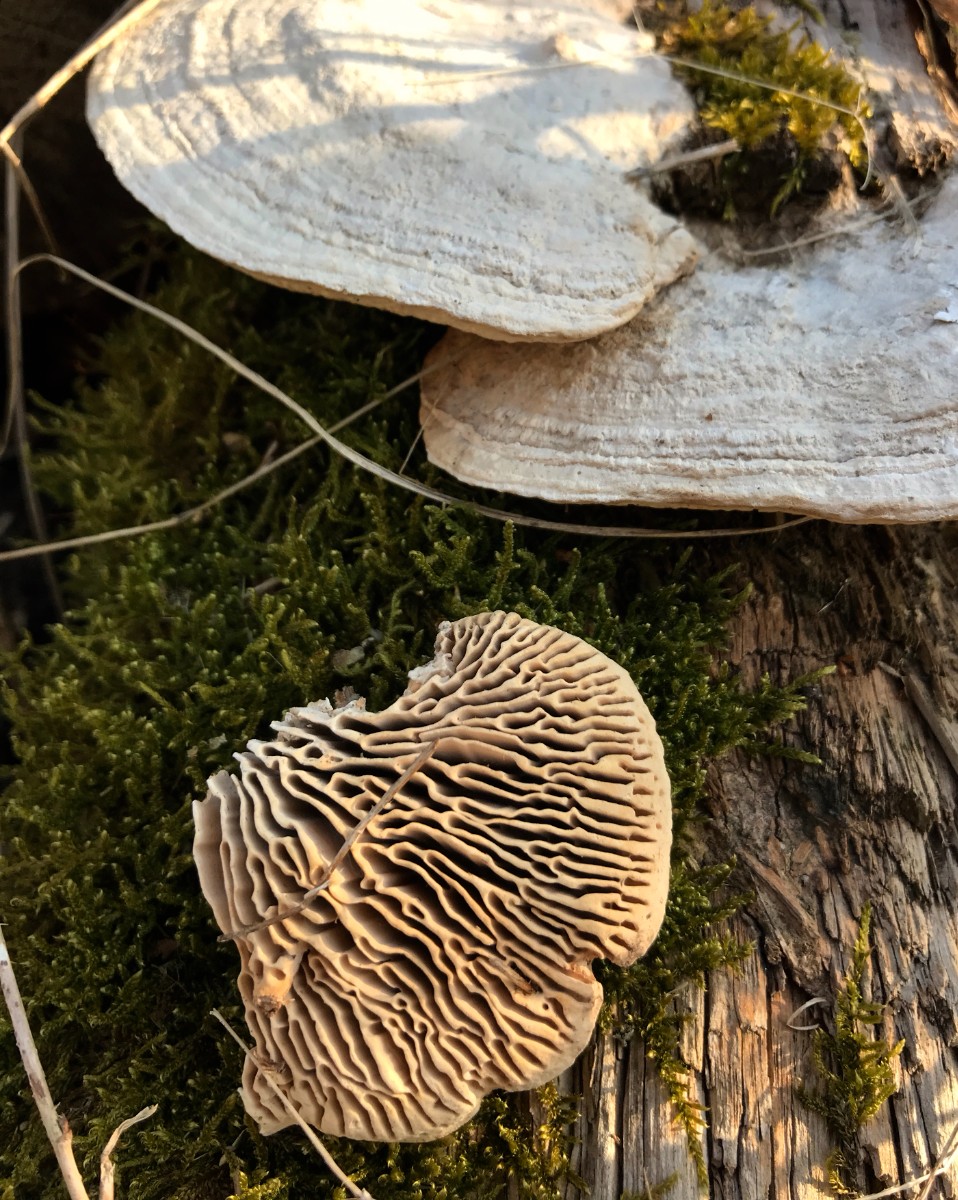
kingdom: Fungi
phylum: Basidiomycota
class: Agaricomycetes
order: Polyporales
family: Fomitopsidaceae
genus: Daedalea
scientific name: Daedalea quercina
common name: ege-labyrintsvamp
